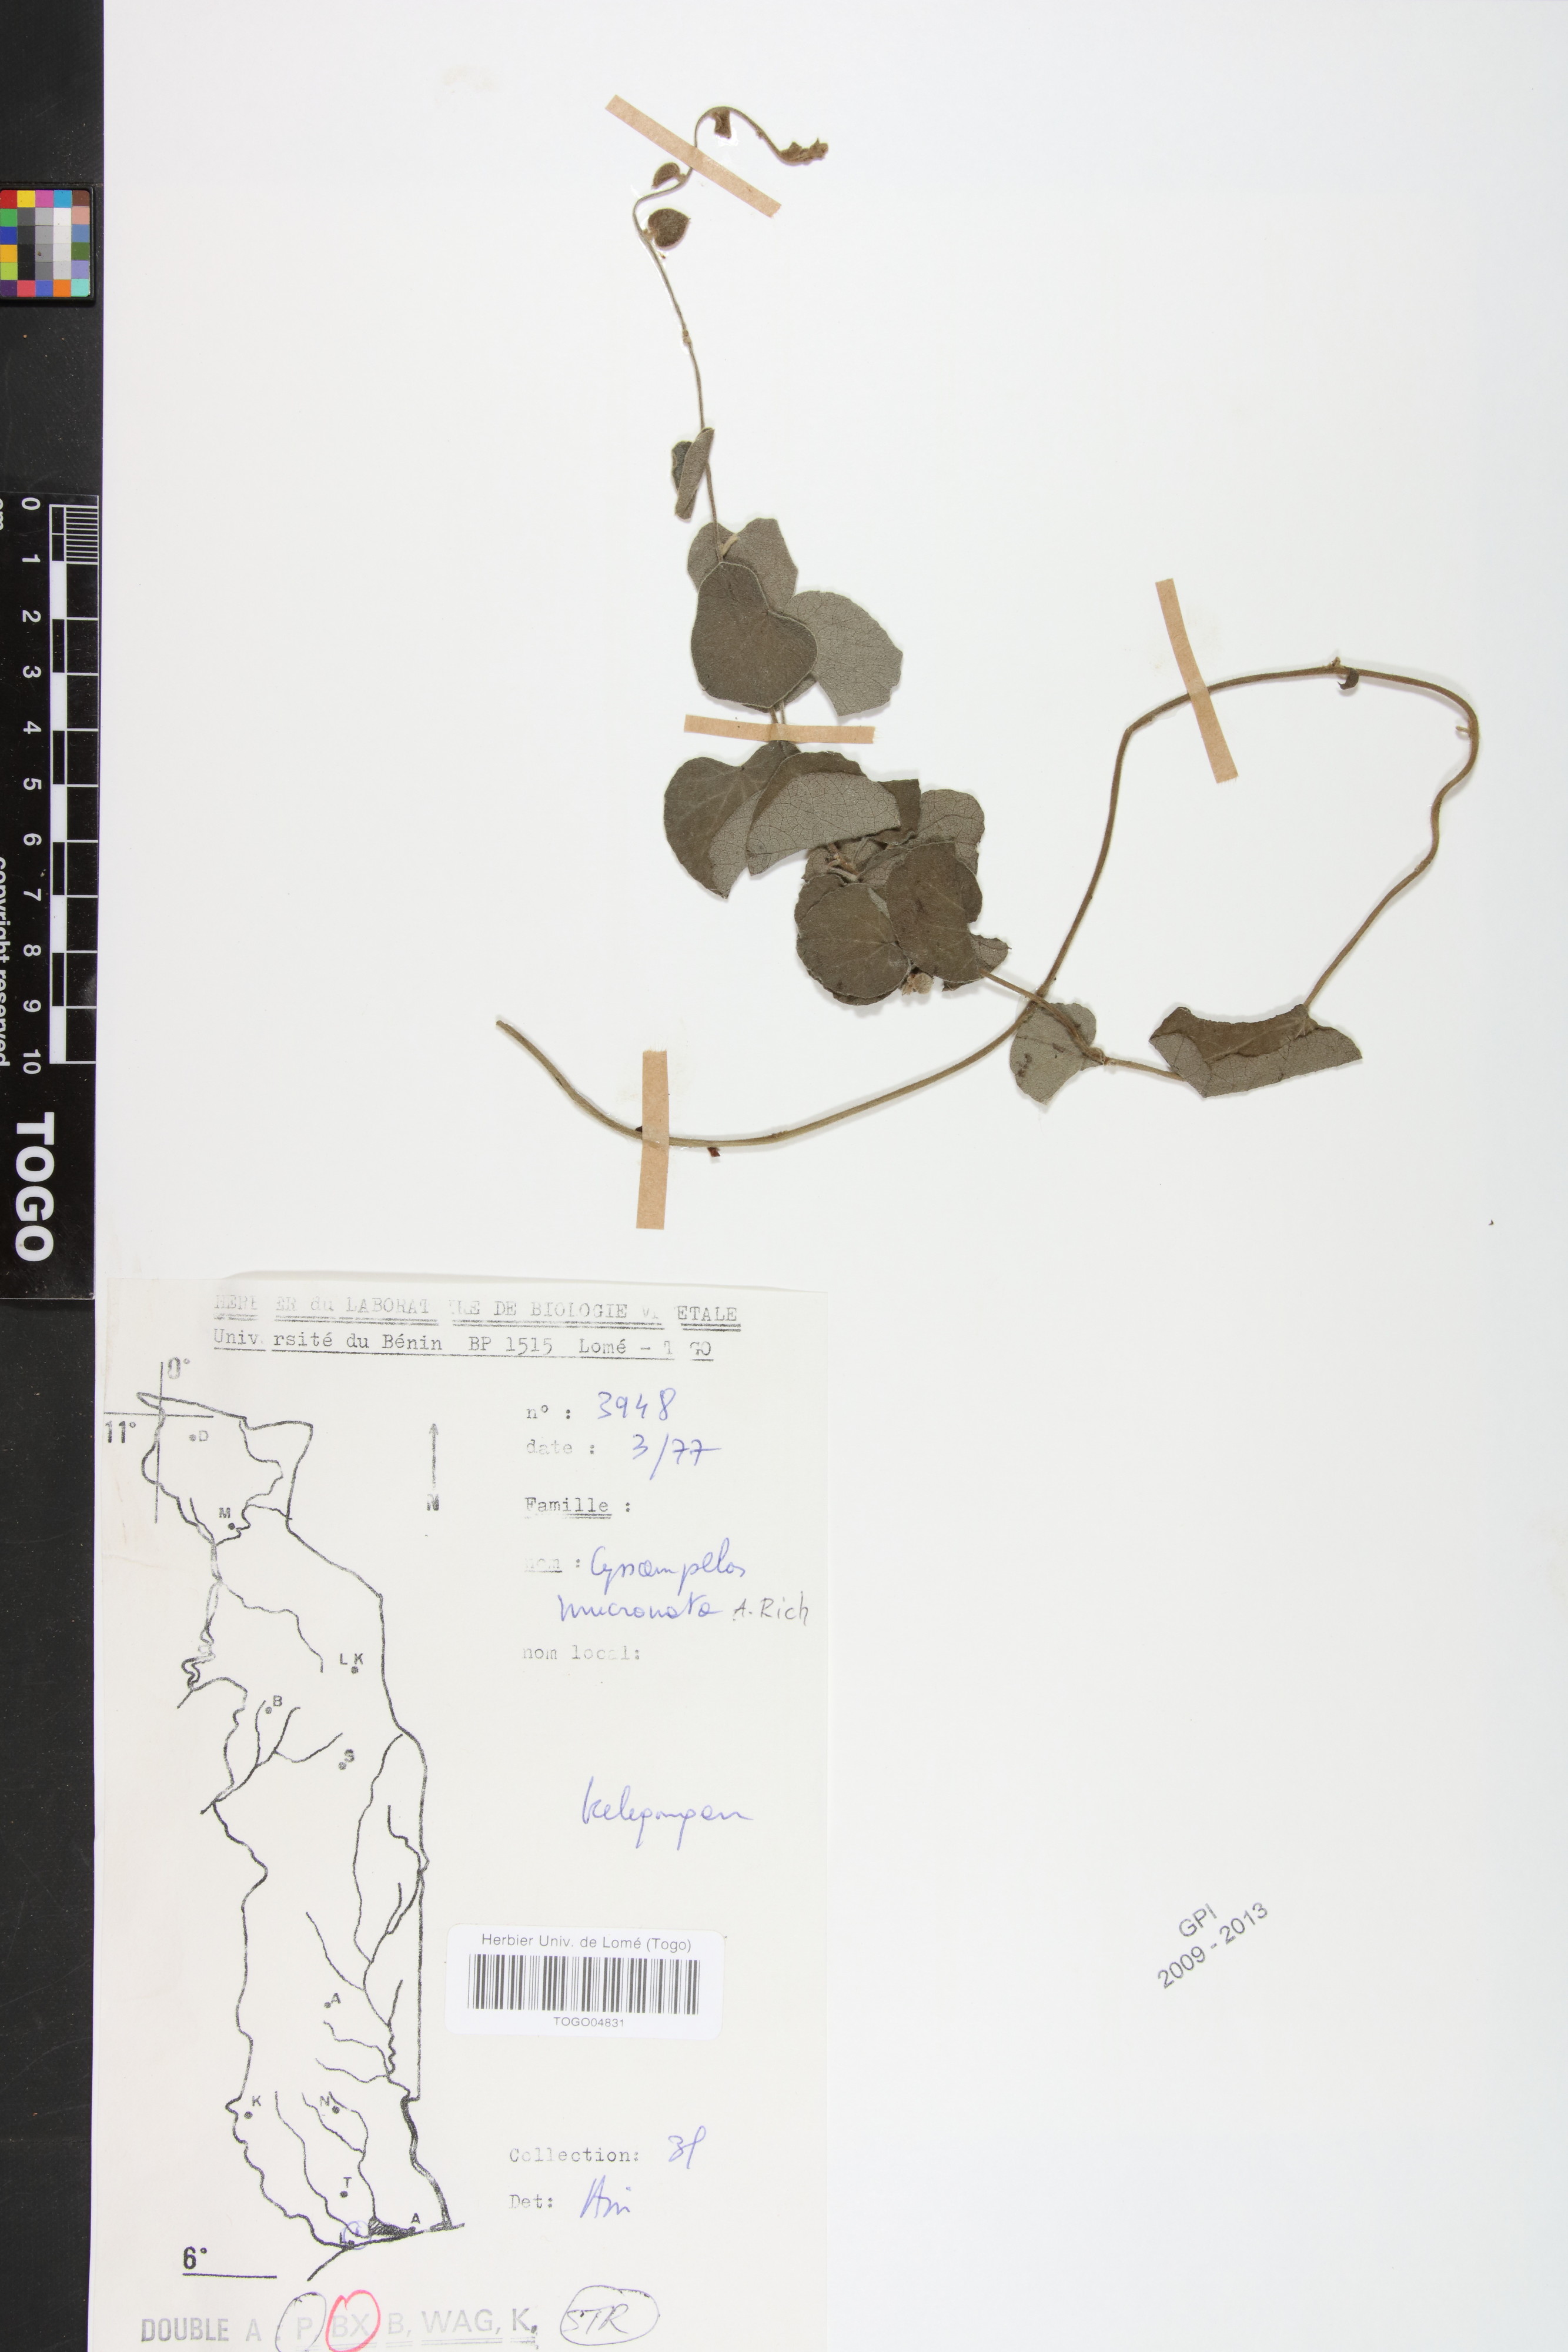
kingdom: Plantae
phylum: Tracheophyta
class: Magnoliopsida
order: Ranunculales
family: Menispermaceae
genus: Cissampelos
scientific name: Cissampelos mucronata
